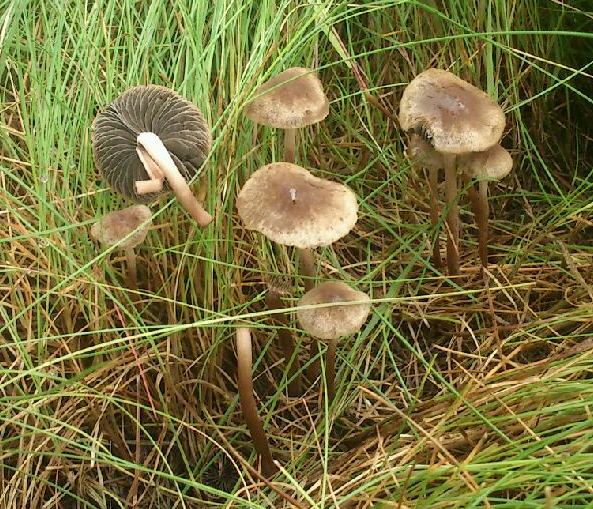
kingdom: Fungi
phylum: Basidiomycota
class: Agaricomycetes
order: Agaricales
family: Bolbitiaceae
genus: Panaeolus
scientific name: Panaeolus reticulatus
